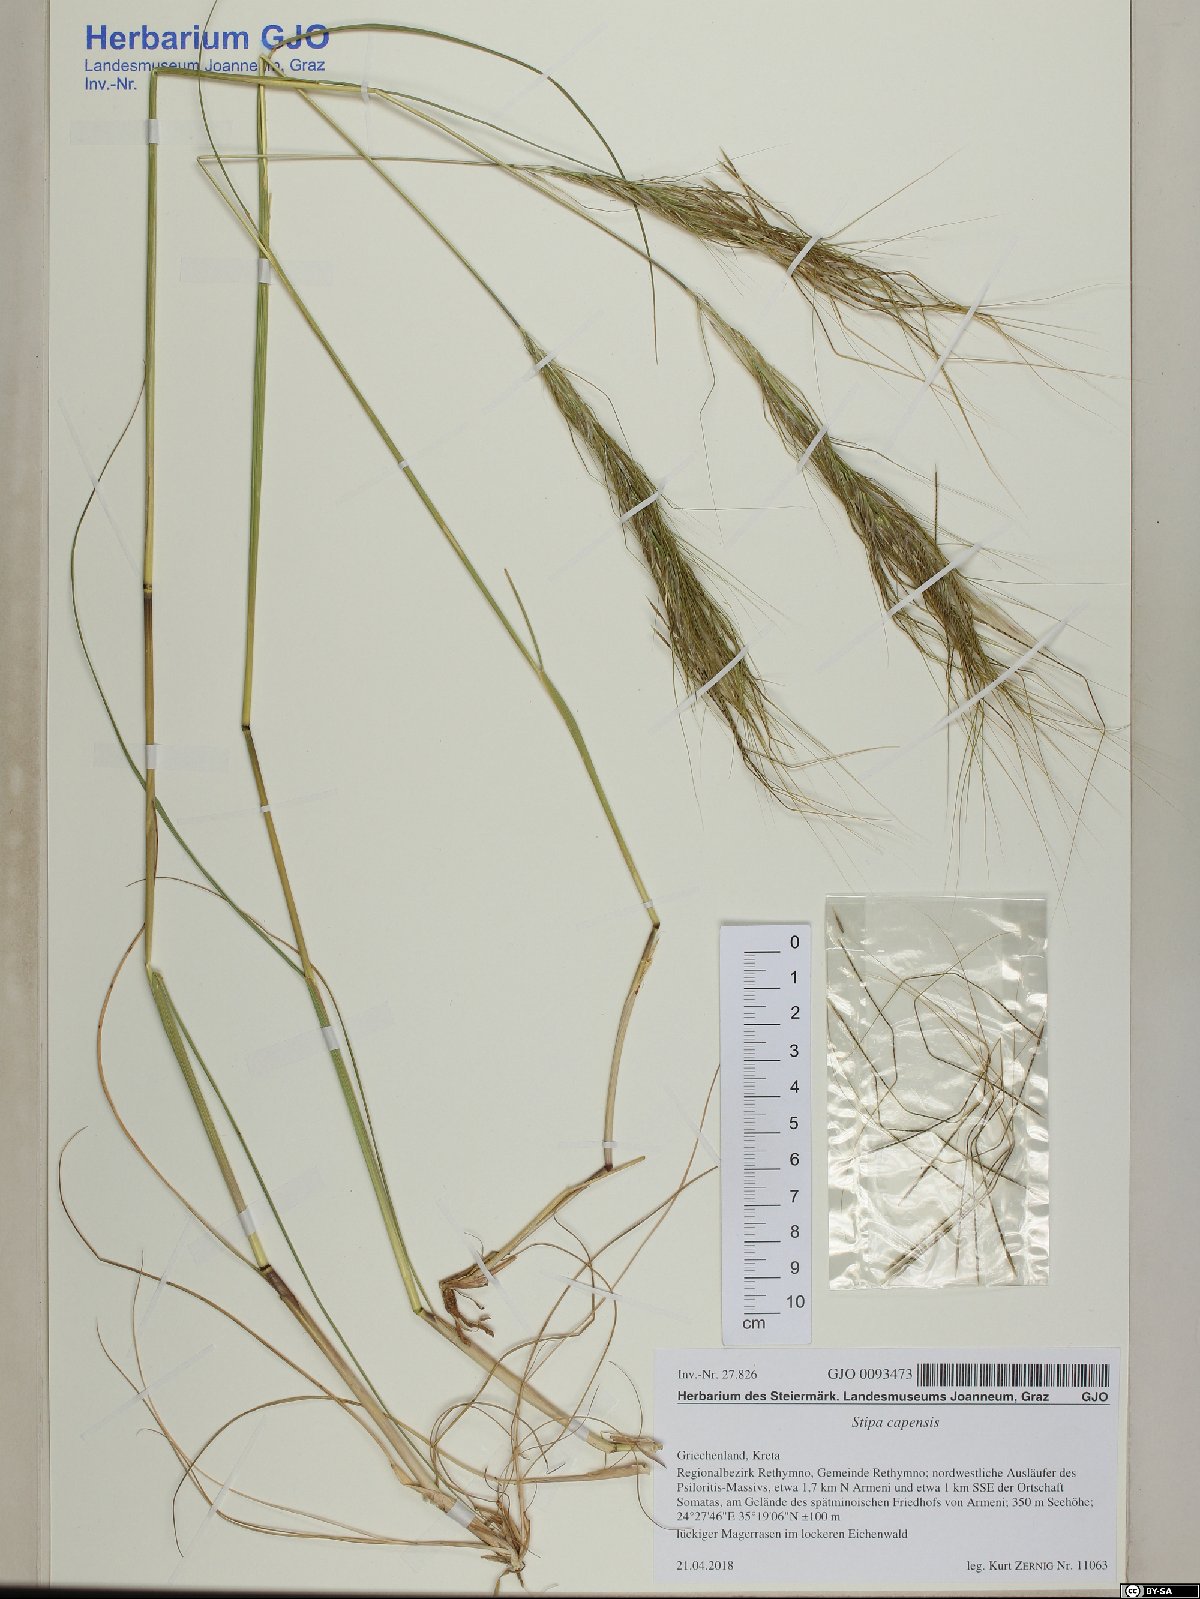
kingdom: Plantae
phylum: Tracheophyta
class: Liliopsida
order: Poales
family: Poaceae
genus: Stipellula
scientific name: Stipellula capensis
